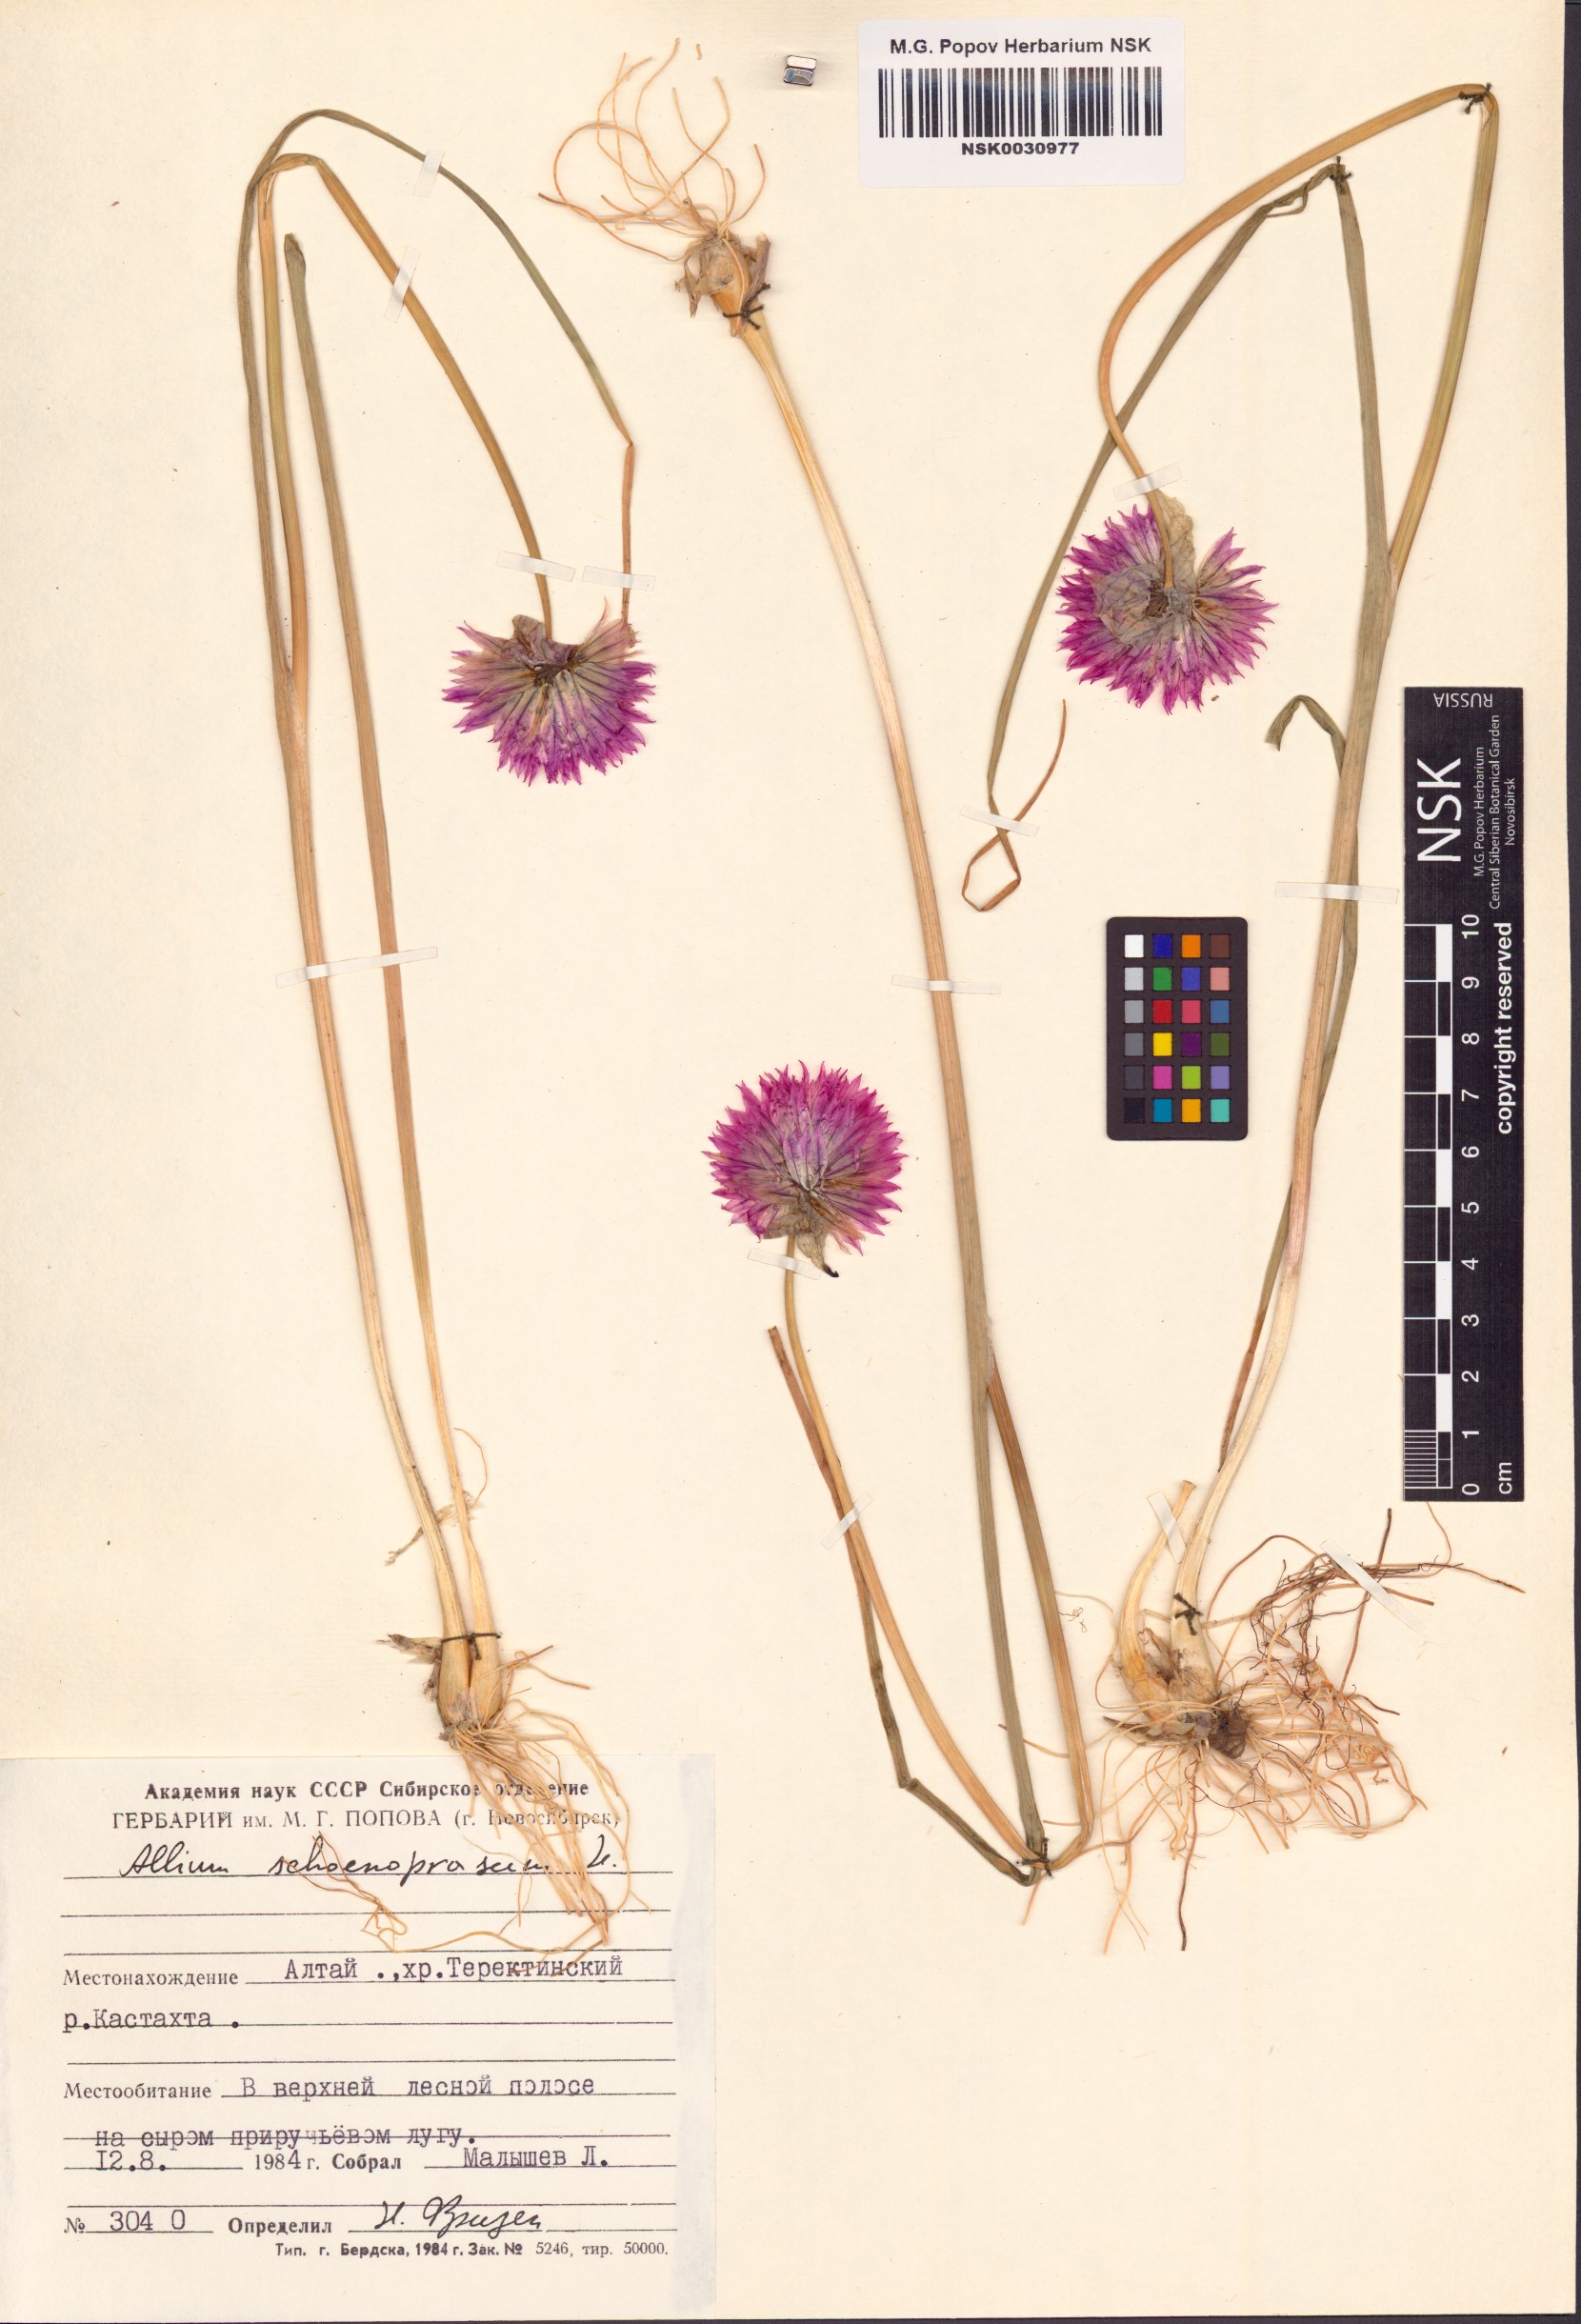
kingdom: Plantae
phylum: Tracheophyta
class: Liliopsida
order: Asparagales
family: Amaryllidaceae
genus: Allium
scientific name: Allium schoenoprasum
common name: Chives
